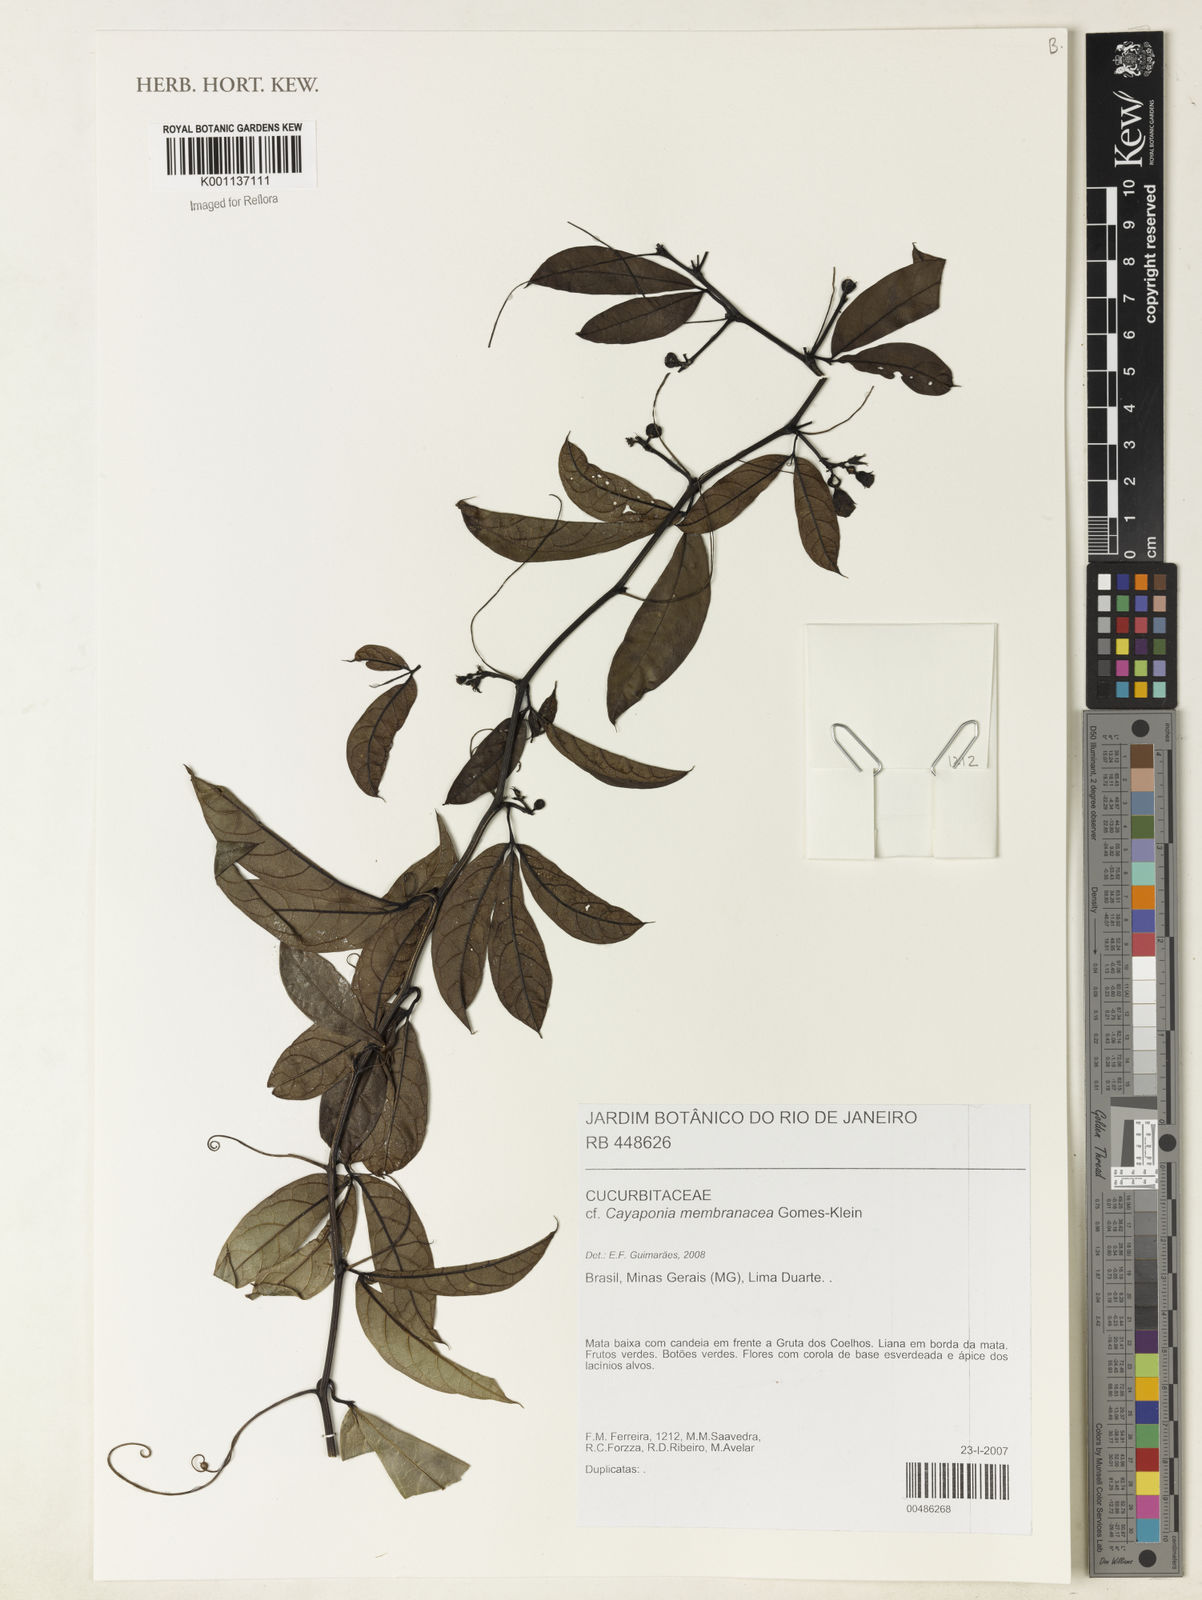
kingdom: Plantae
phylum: Tracheophyta
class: Magnoliopsida
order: Cucurbitales
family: Cucurbitaceae
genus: Cayaponia
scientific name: Cayaponia membranacea
